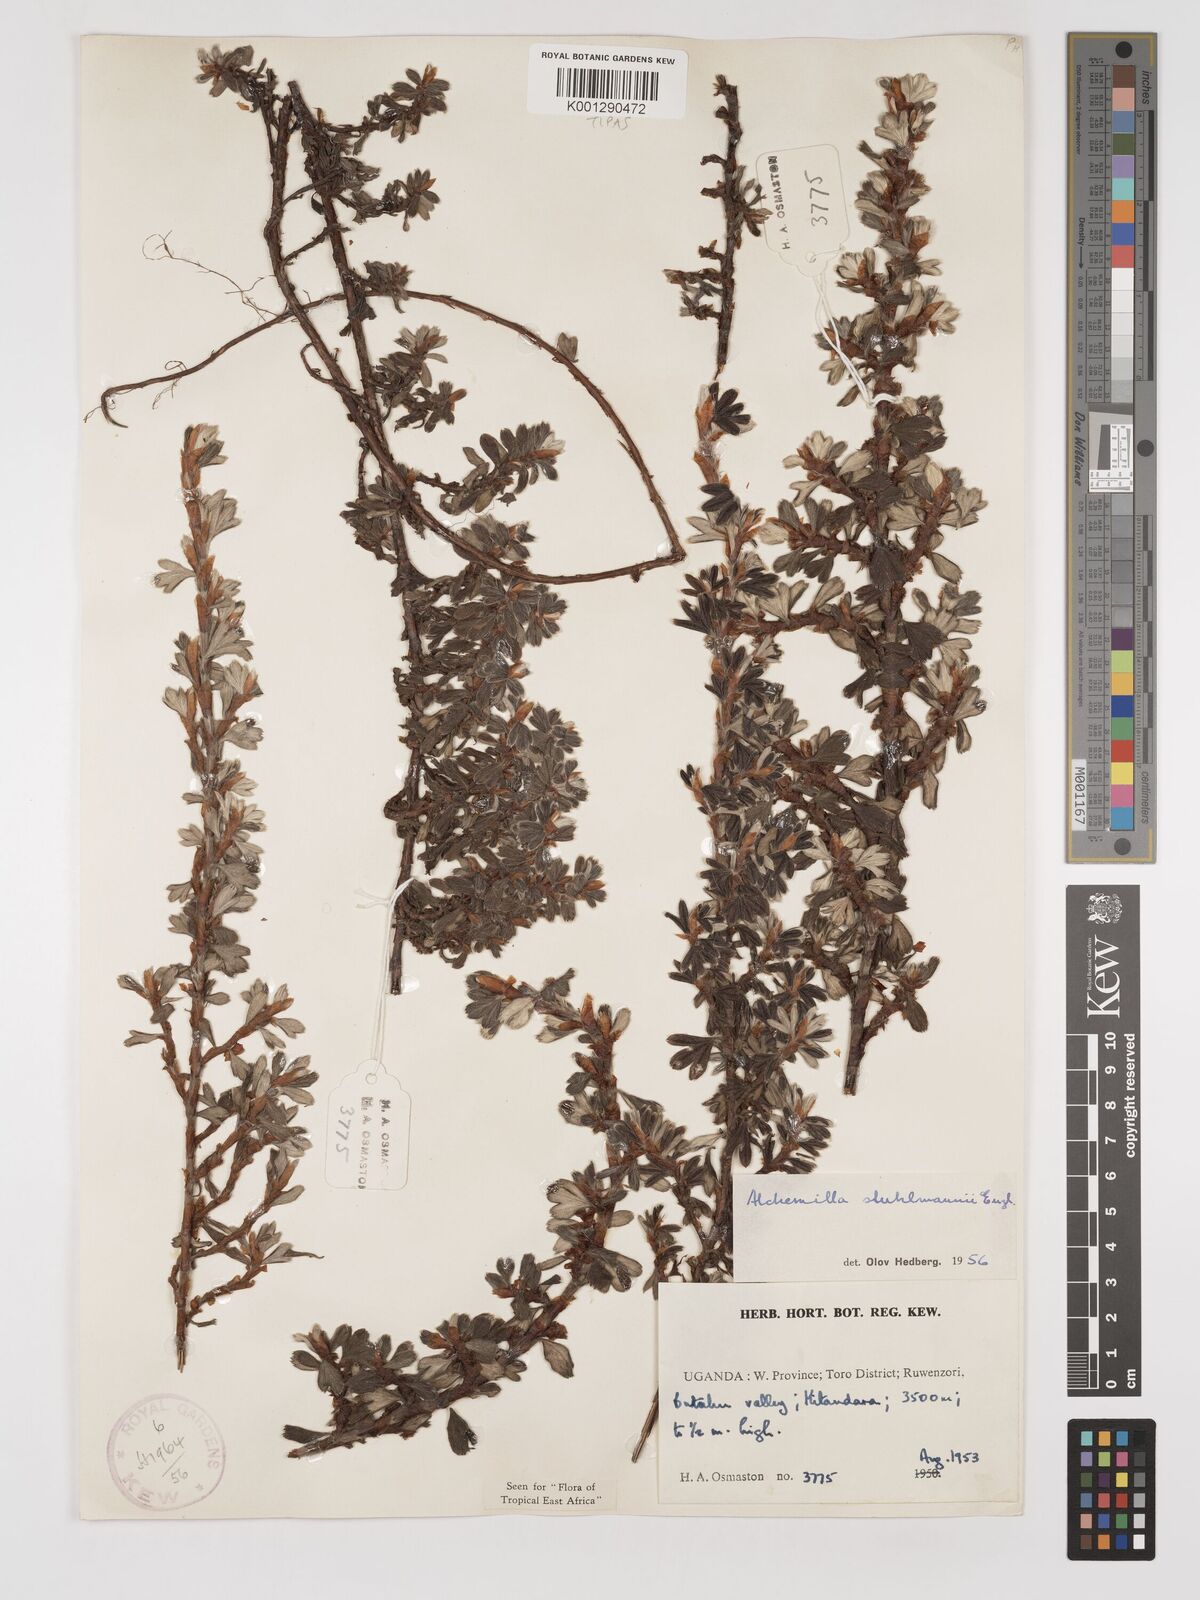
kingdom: Plantae
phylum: Tracheophyta
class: Magnoliopsida
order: Rosales
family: Rosaceae
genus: Alchemilla
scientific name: Alchemilla stuhlmannii
